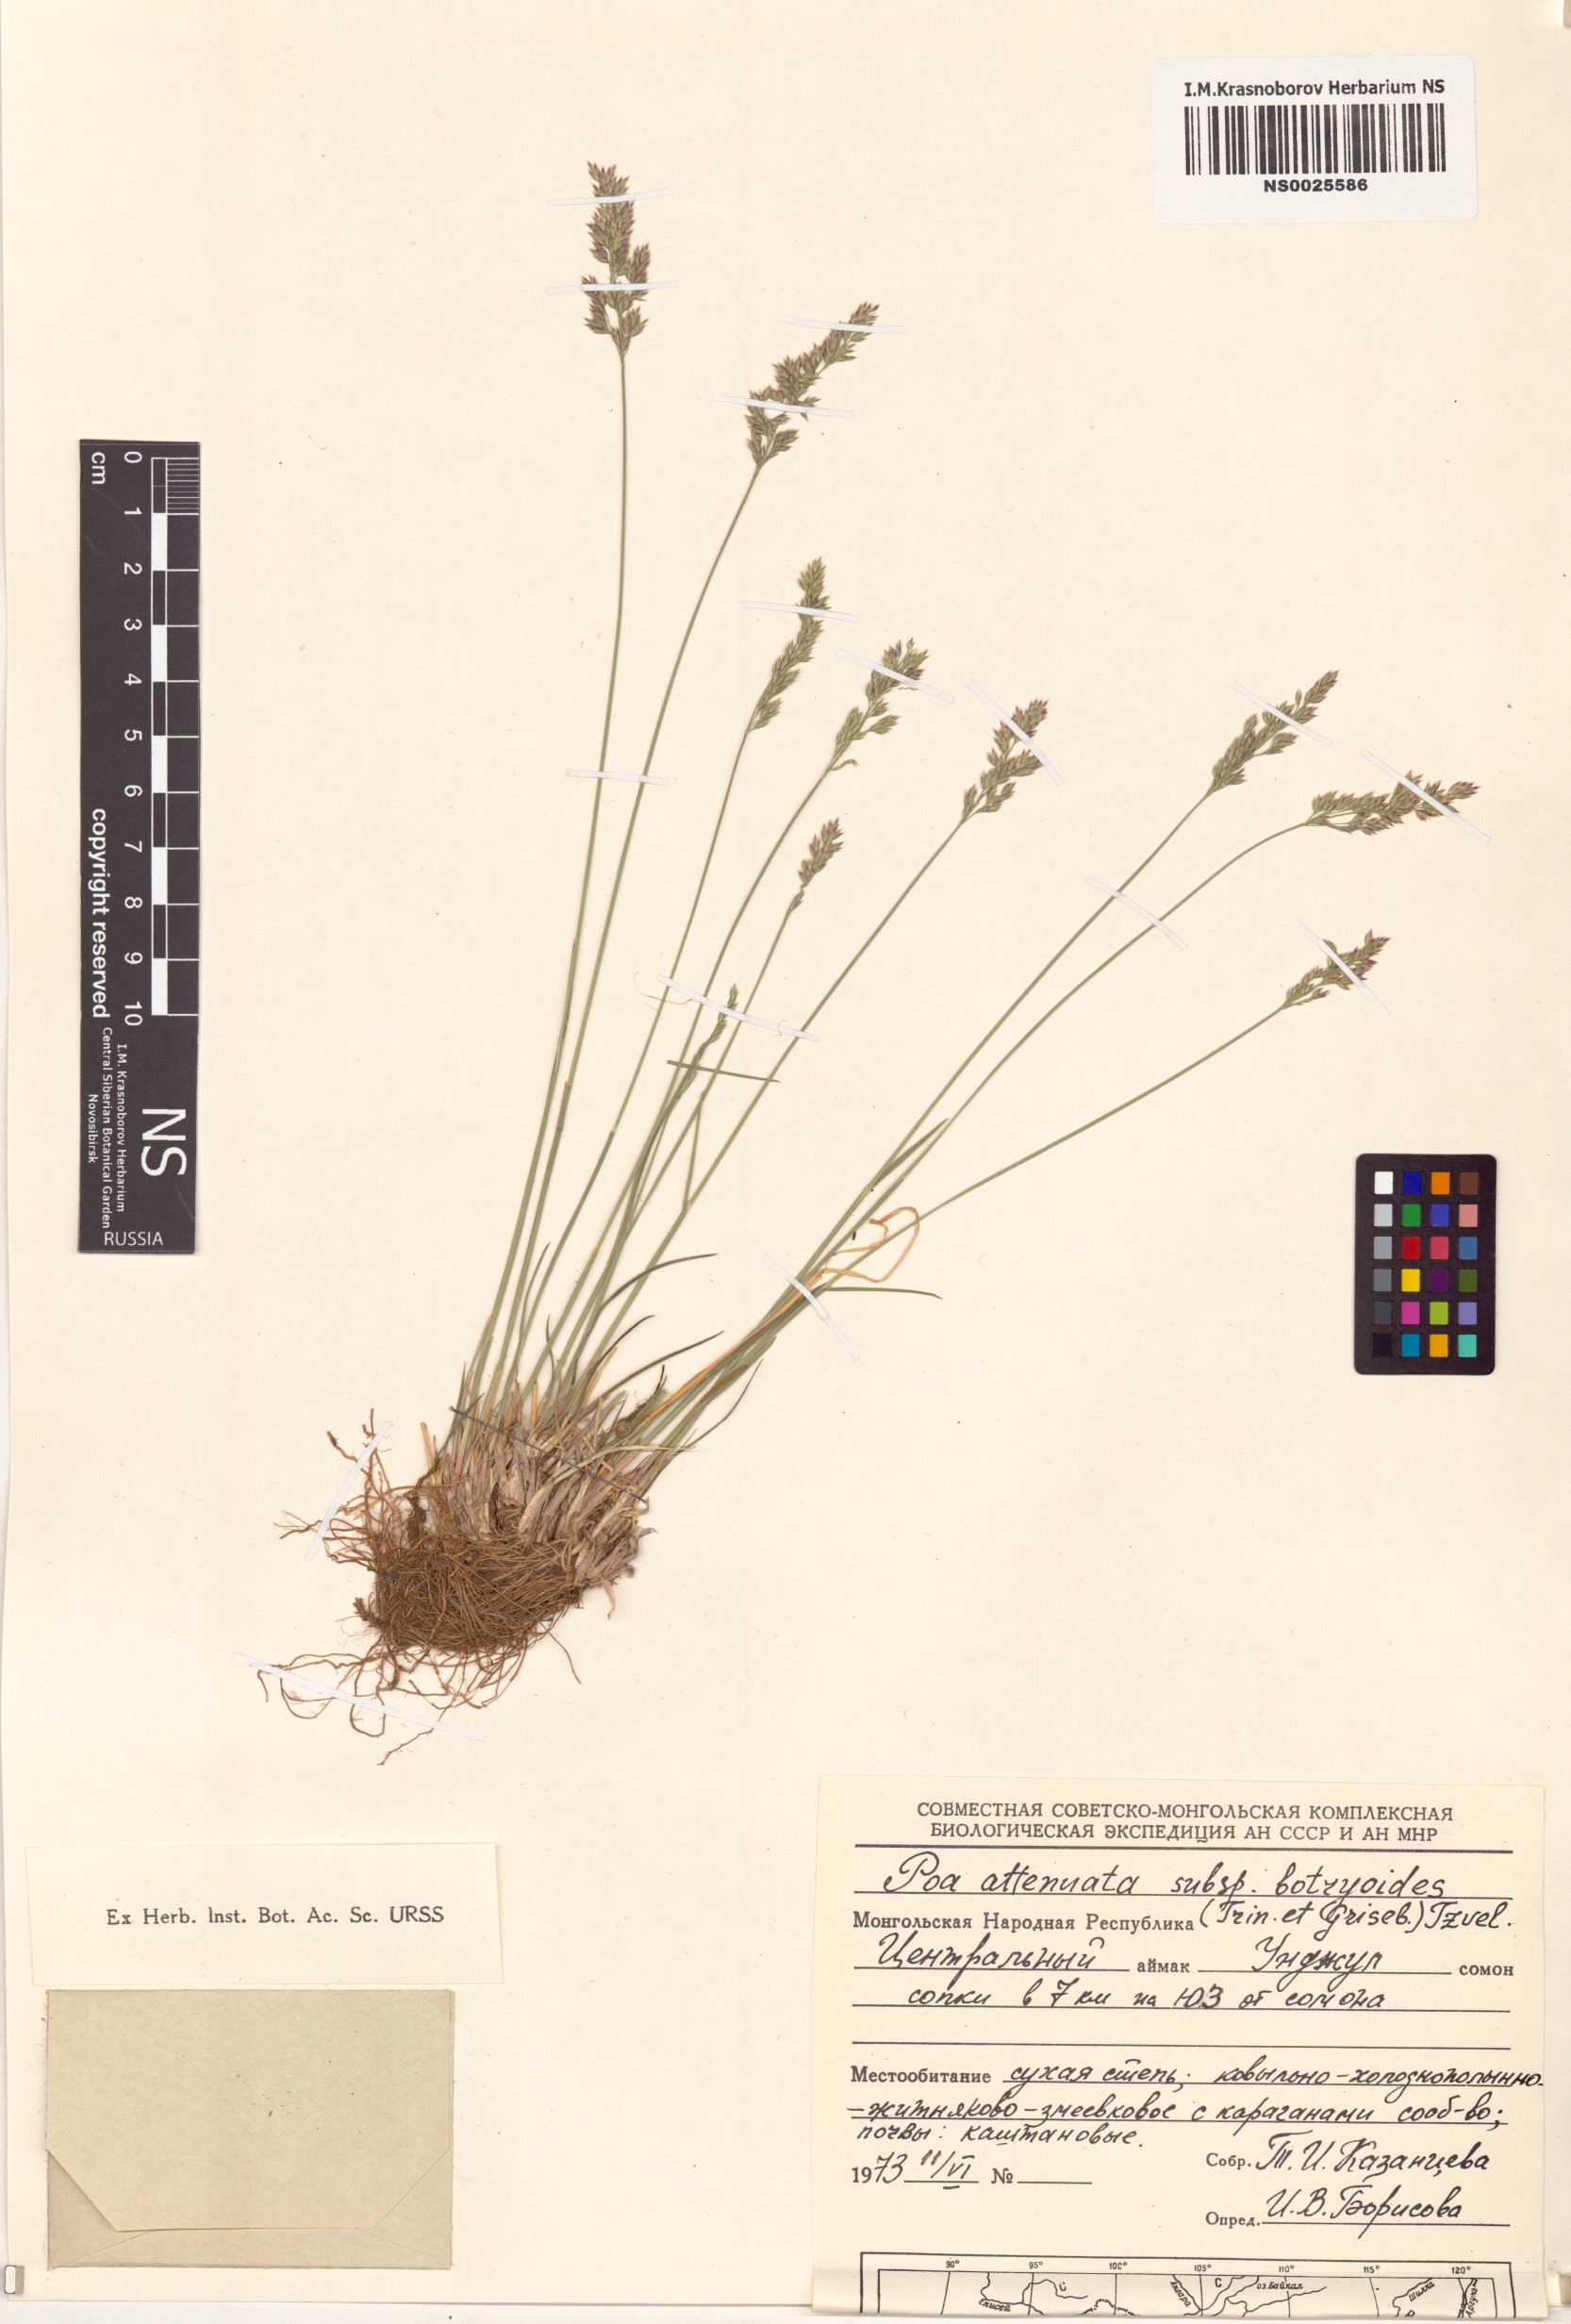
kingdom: Plantae
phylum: Tracheophyta
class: Liliopsida
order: Poales
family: Poaceae
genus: Poa
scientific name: Poa attenuata
